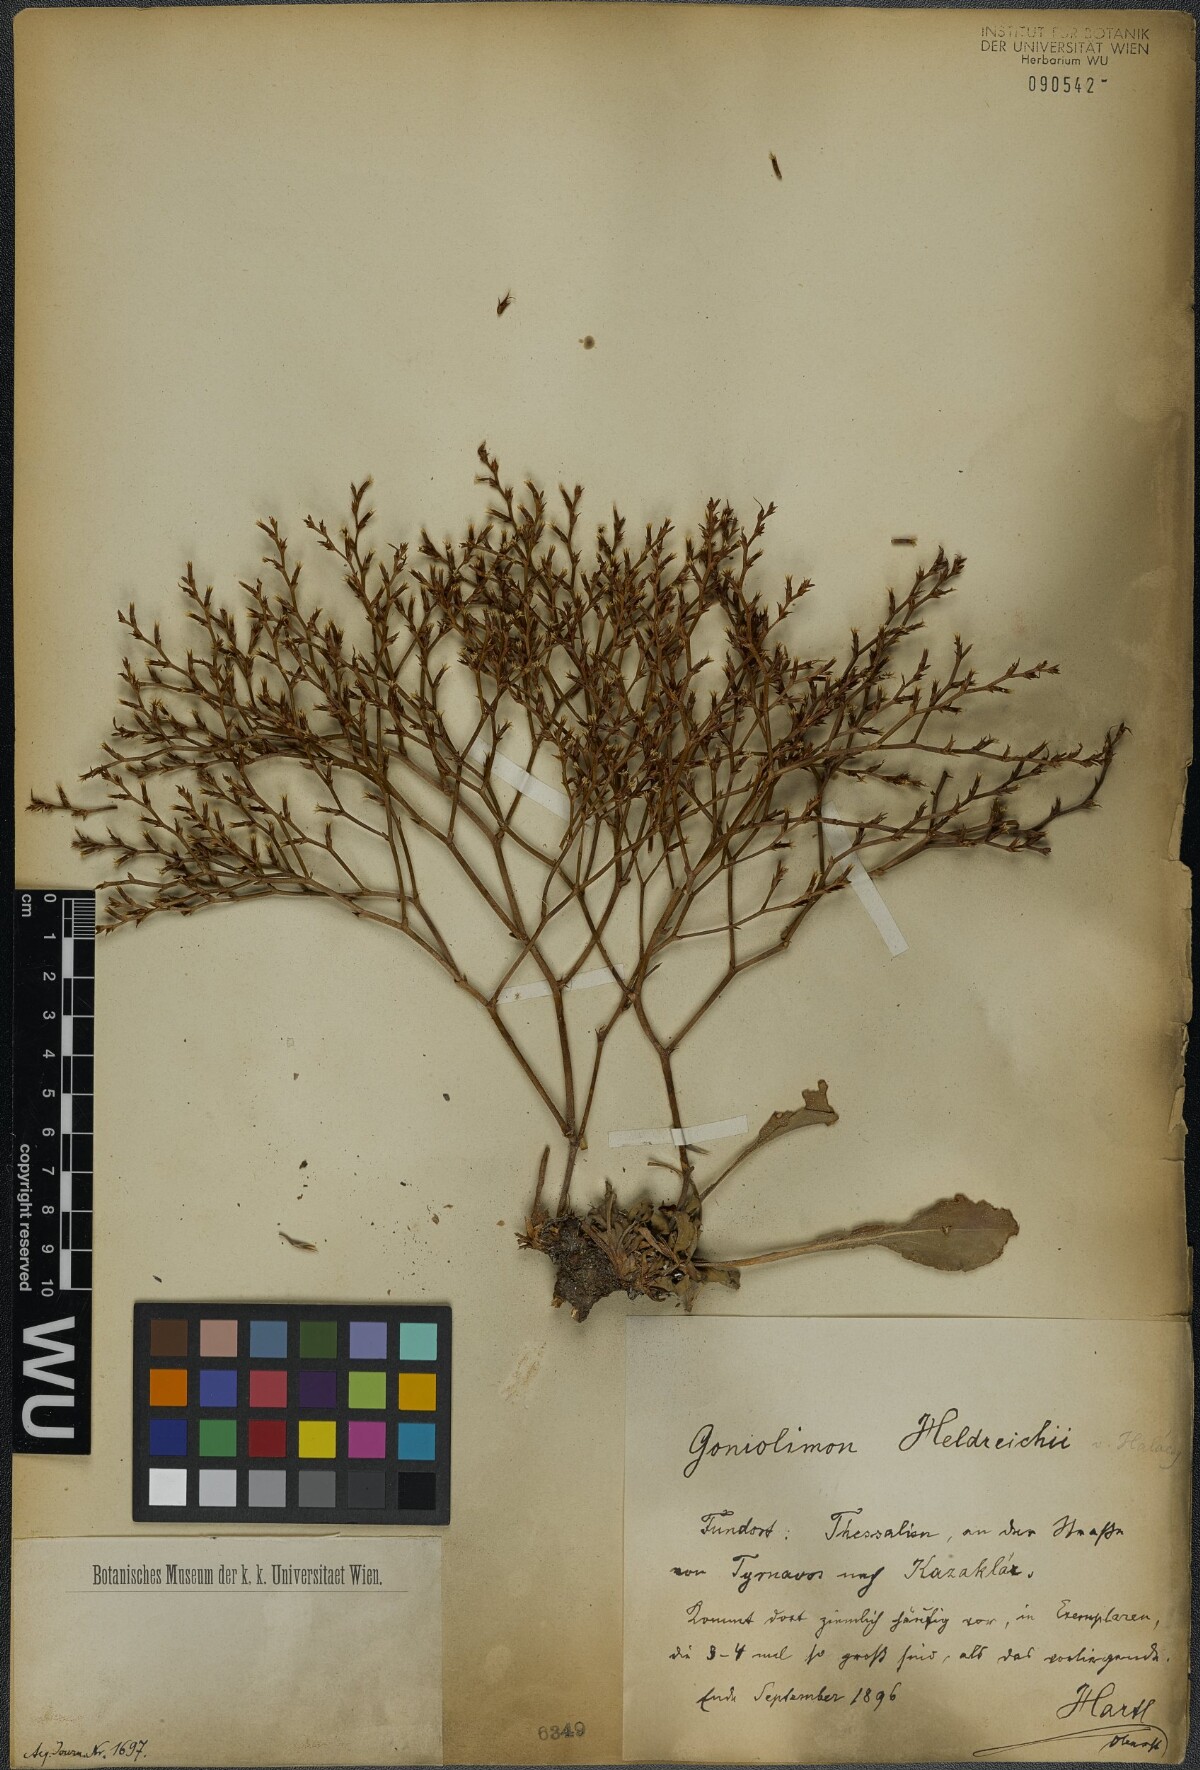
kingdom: Plantae
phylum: Tracheophyta
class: Magnoliopsida
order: Caryophyllales
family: Plumbaginaceae
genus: Goniolimon
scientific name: Goniolimon heldreichii
